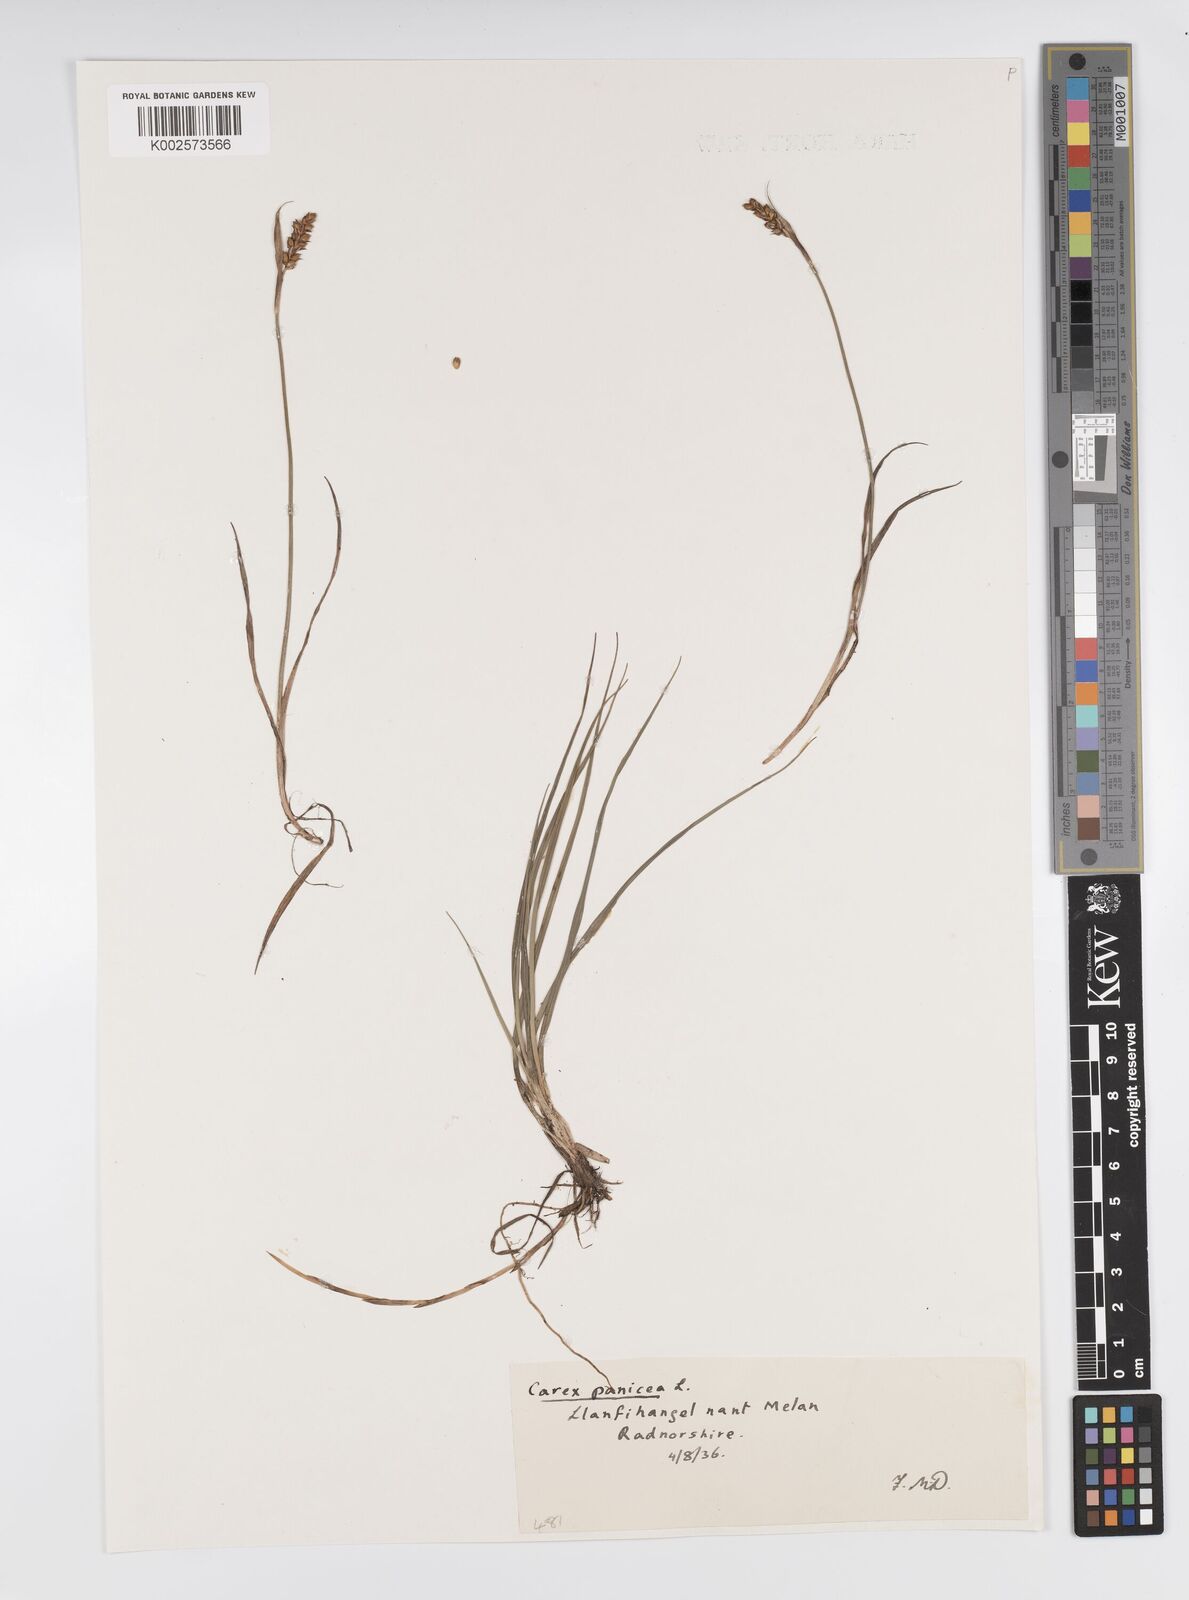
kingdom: Plantae
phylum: Tracheophyta
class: Liliopsida
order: Poales
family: Cyperaceae
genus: Carex
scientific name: Carex panicea
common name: Carnation sedge
